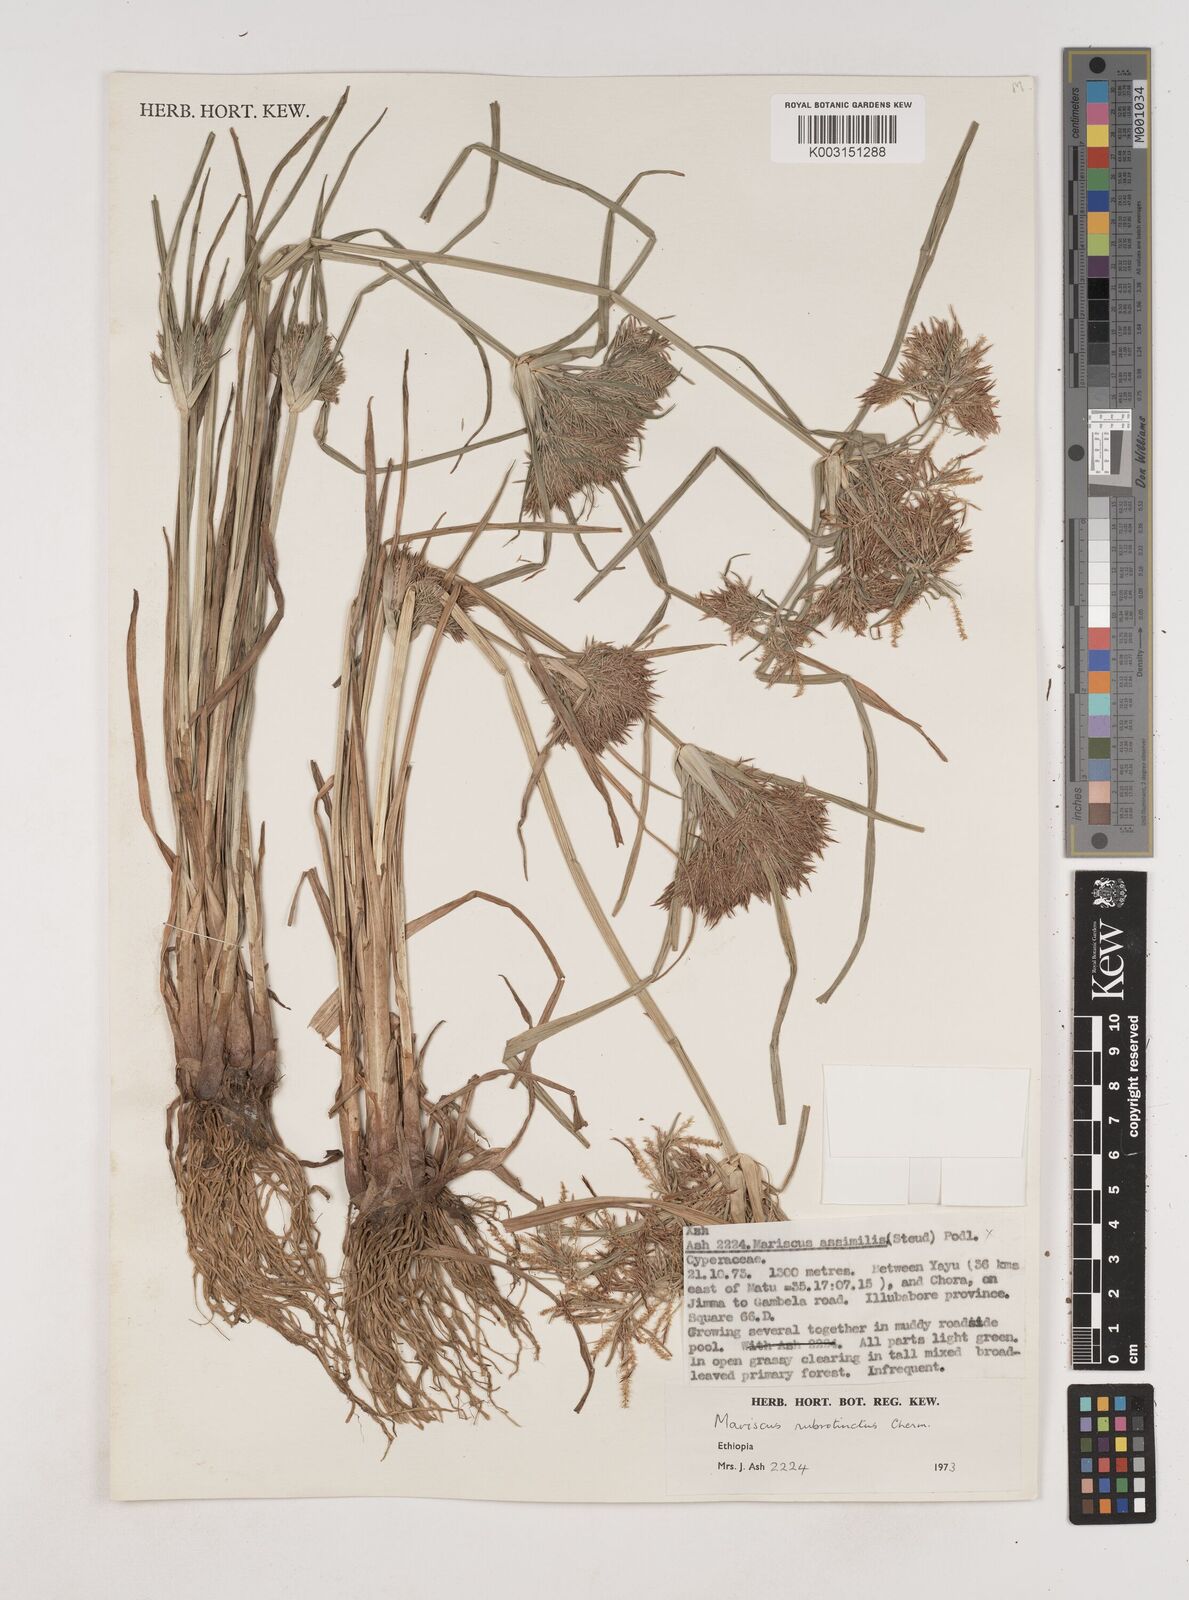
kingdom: Plantae
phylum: Tracheophyta
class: Liliopsida
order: Poales
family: Cyperaceae
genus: Cyperus
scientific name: Cyperus distans
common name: Slender cyperus
